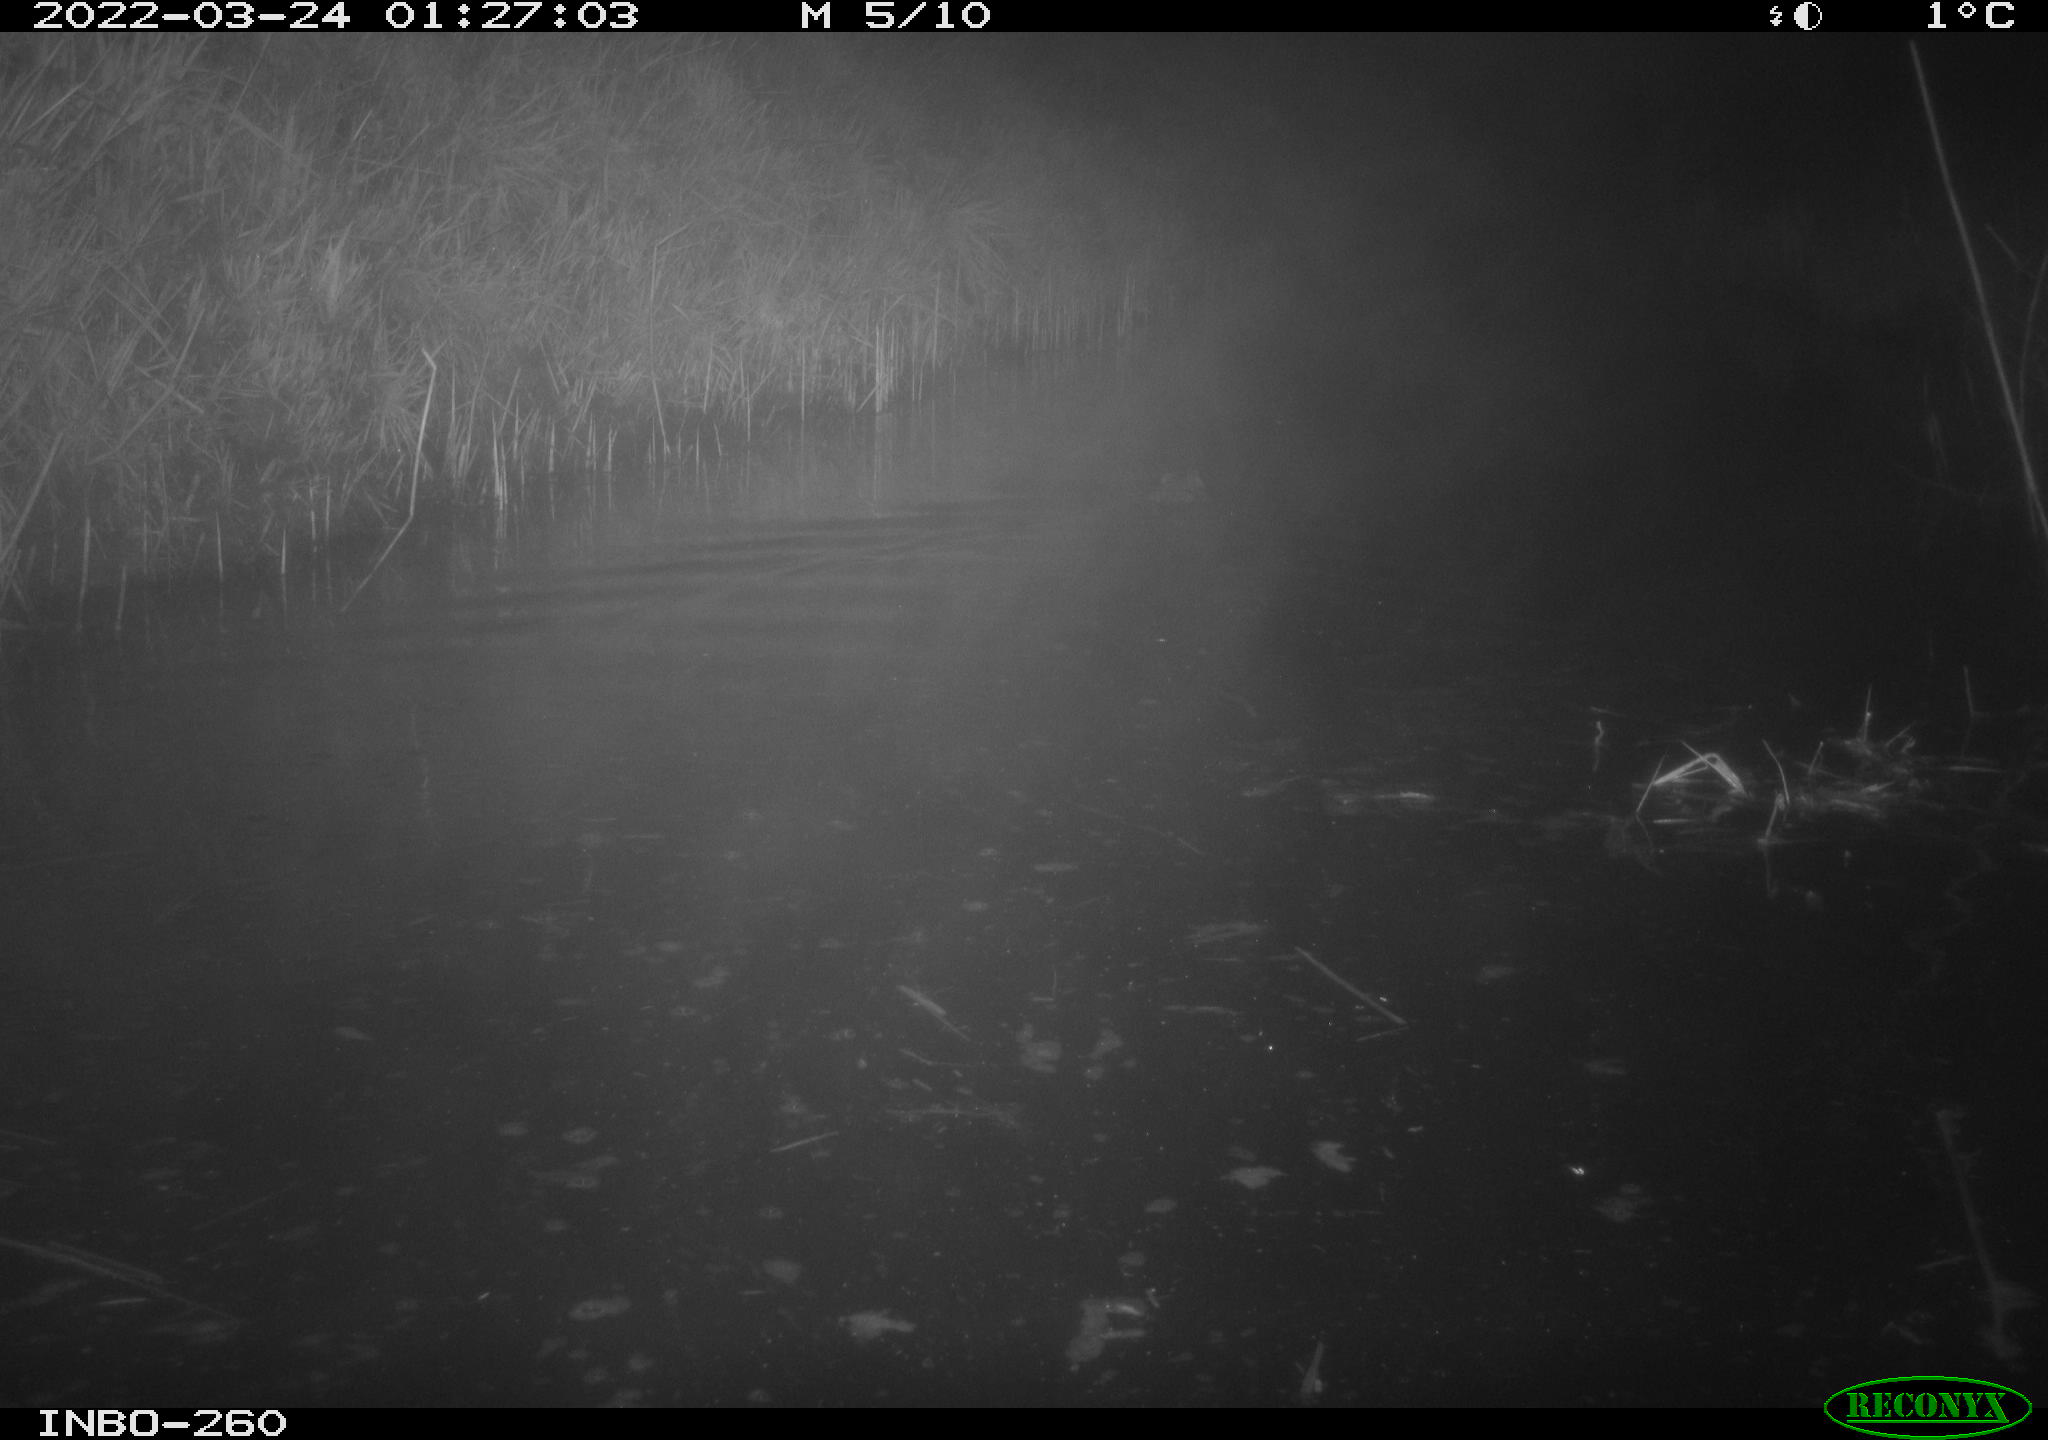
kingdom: Animalia
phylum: Chordata
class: Mammalia
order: Rodentia
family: Cricetidae
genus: Ondatra
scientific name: Ondatra zibethicus
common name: Muskrat
